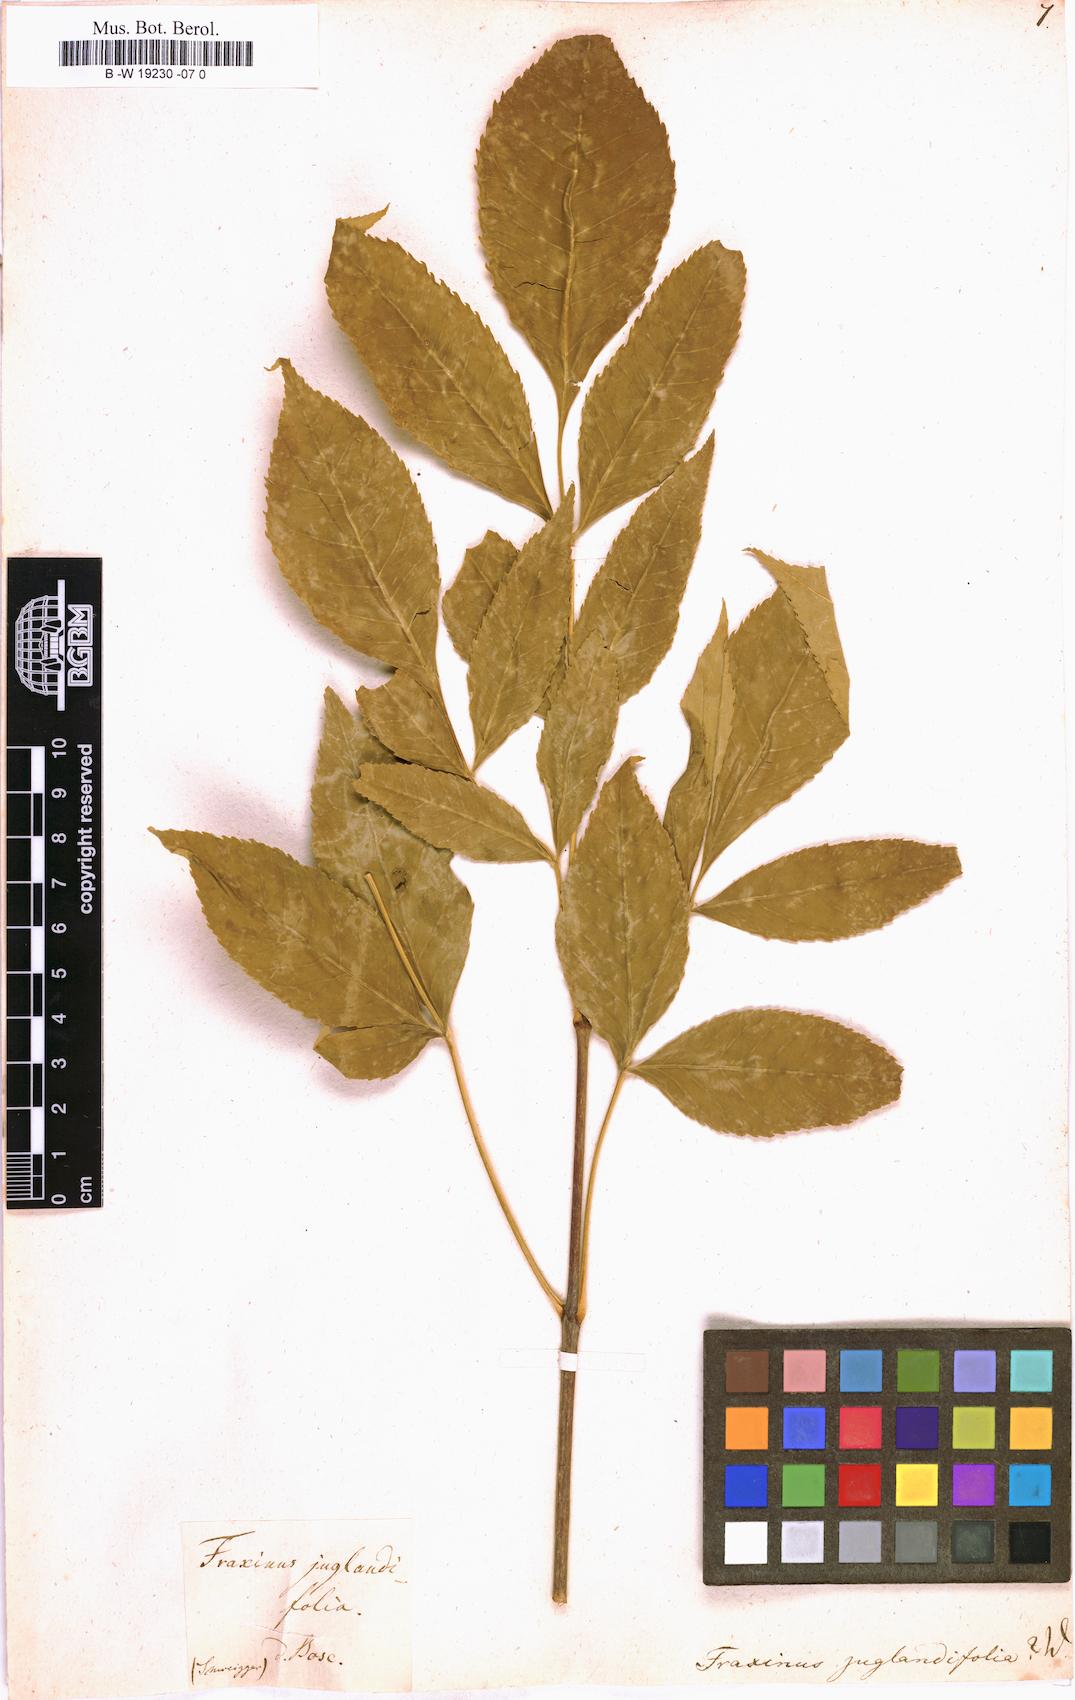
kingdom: Plantae
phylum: Tracheophyta
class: Magnoliopsida
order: Lamiales
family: Oleaceae
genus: Fraxinus
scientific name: Fraxinus americana
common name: White ash
